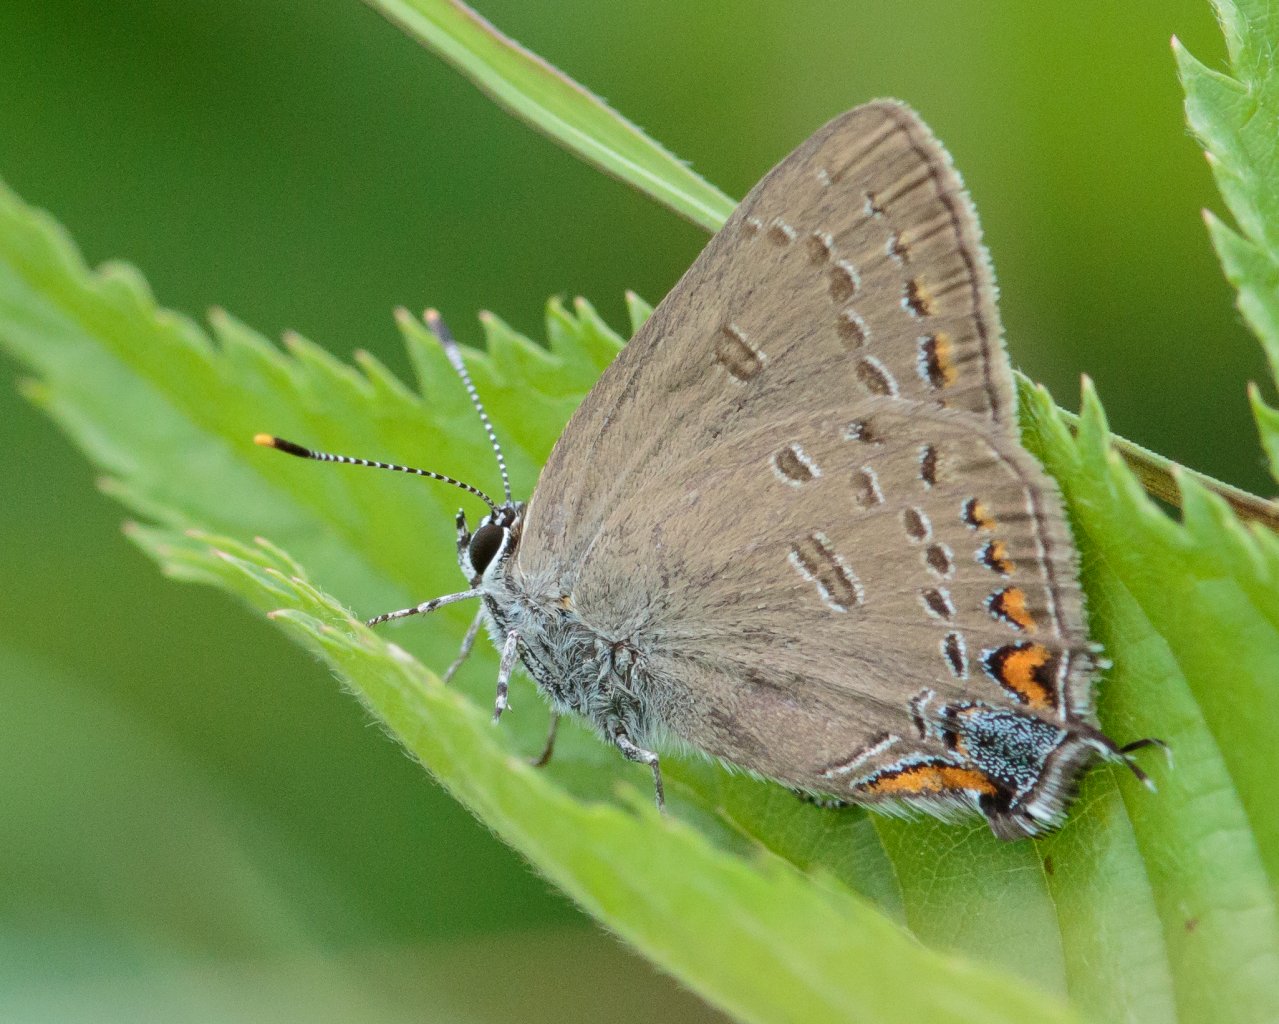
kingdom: Animalia
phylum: Arthropoda
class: Insecta
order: Lepidoptera
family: Lycaenidae
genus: Satyrium
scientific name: Satyrium calanus
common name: Banded Hairstreak
